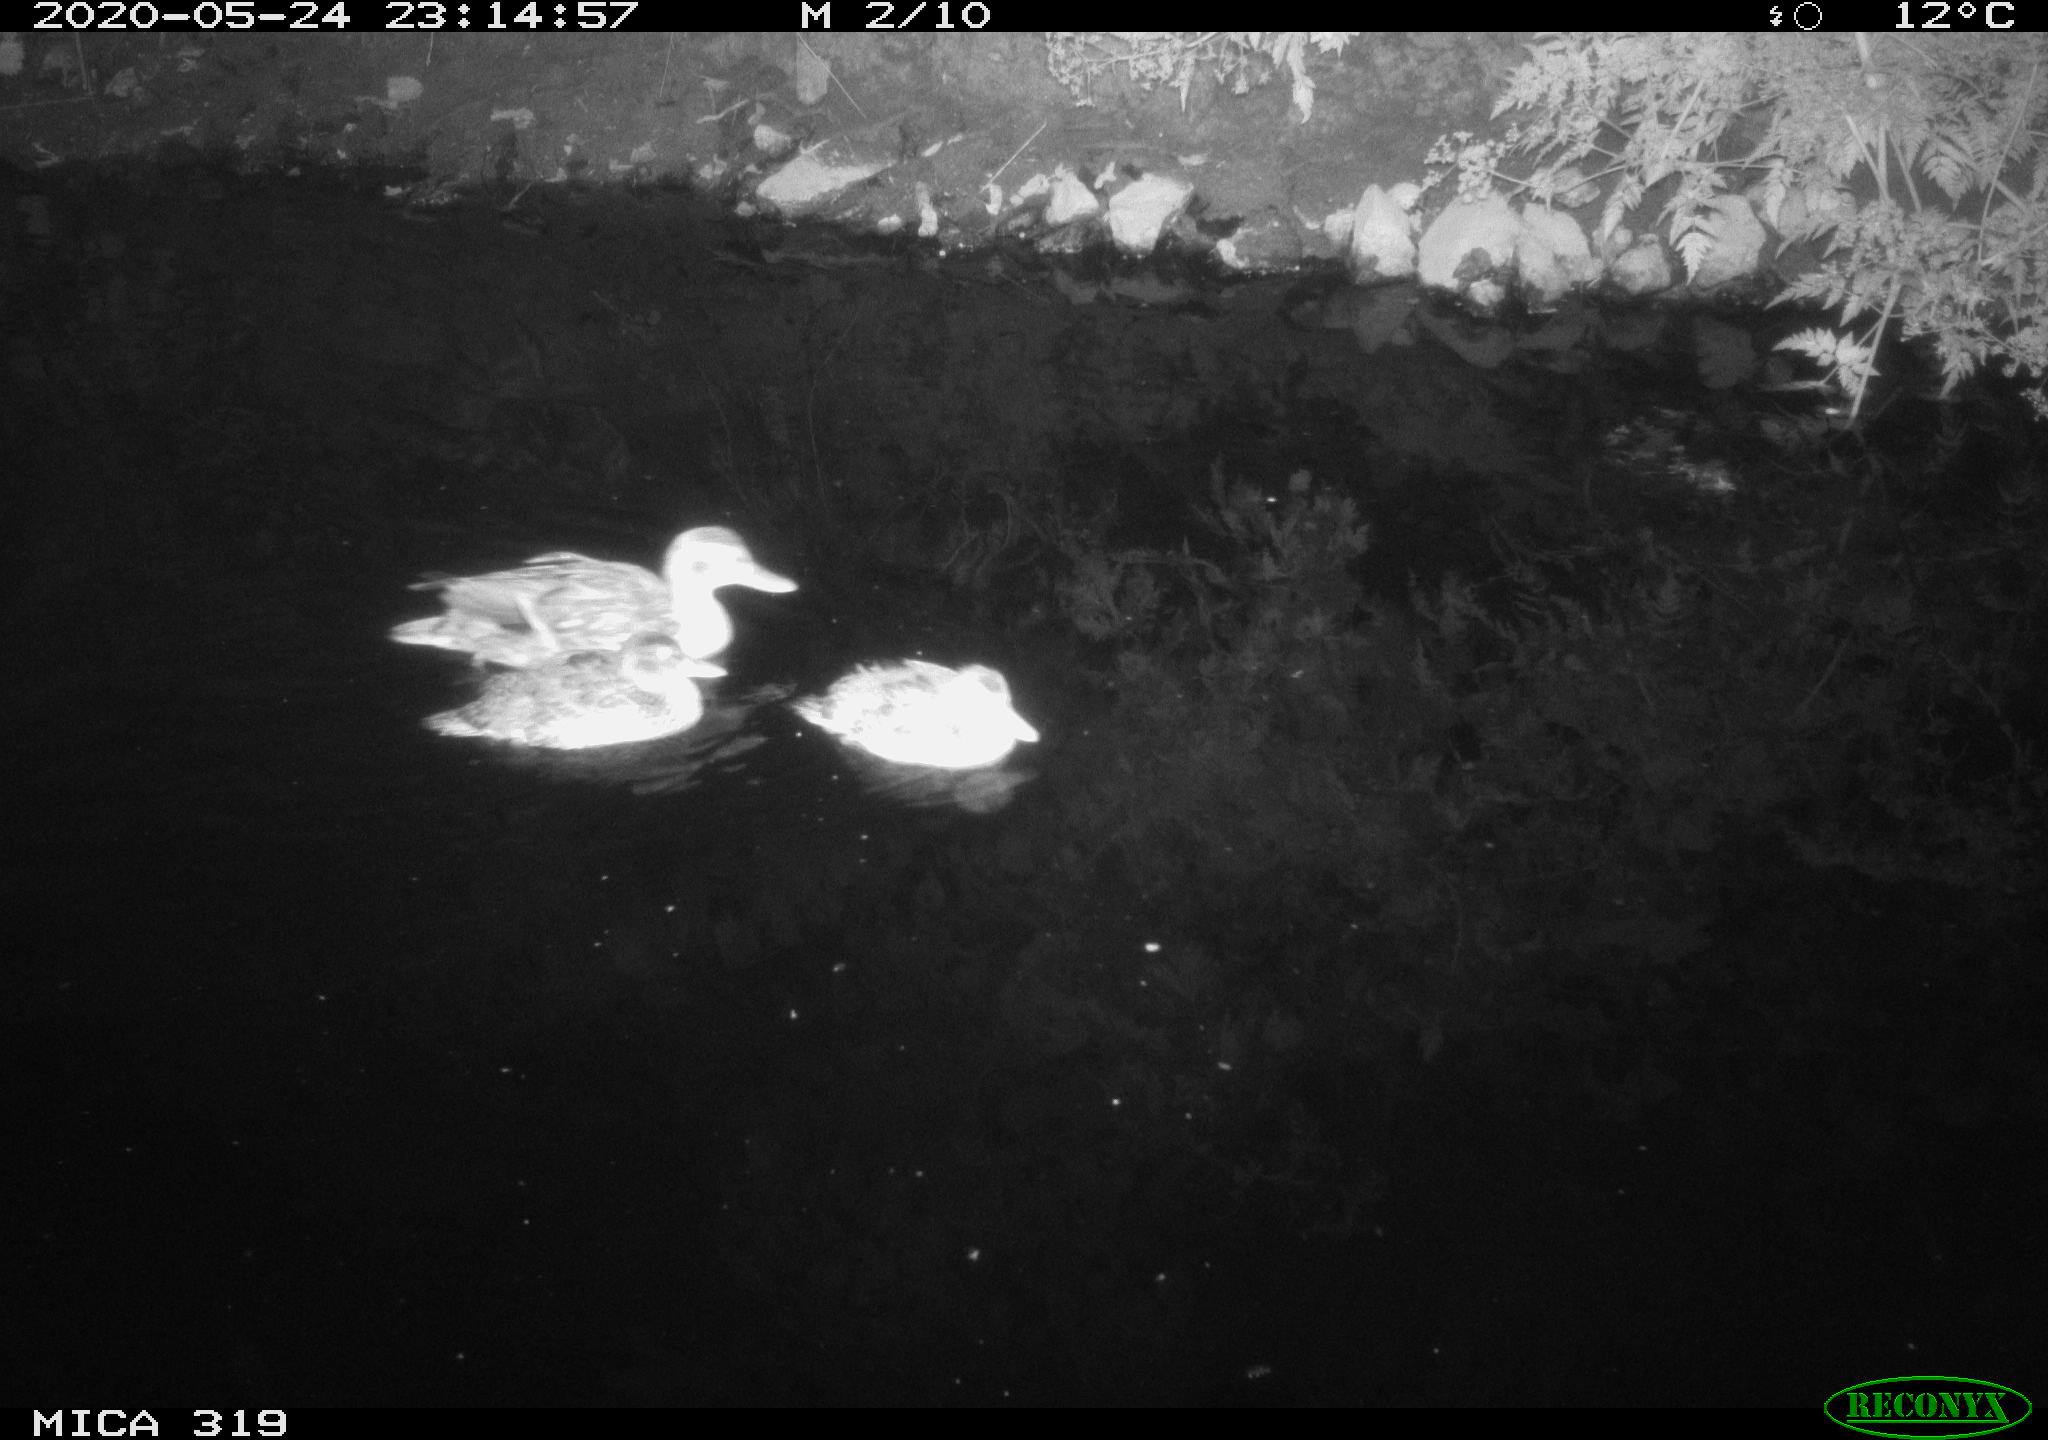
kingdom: Animalia
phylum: Chordata
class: Aves
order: Anseriformes
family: Anatidae
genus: Anas
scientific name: Anas platyrhynchos
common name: Mallard
